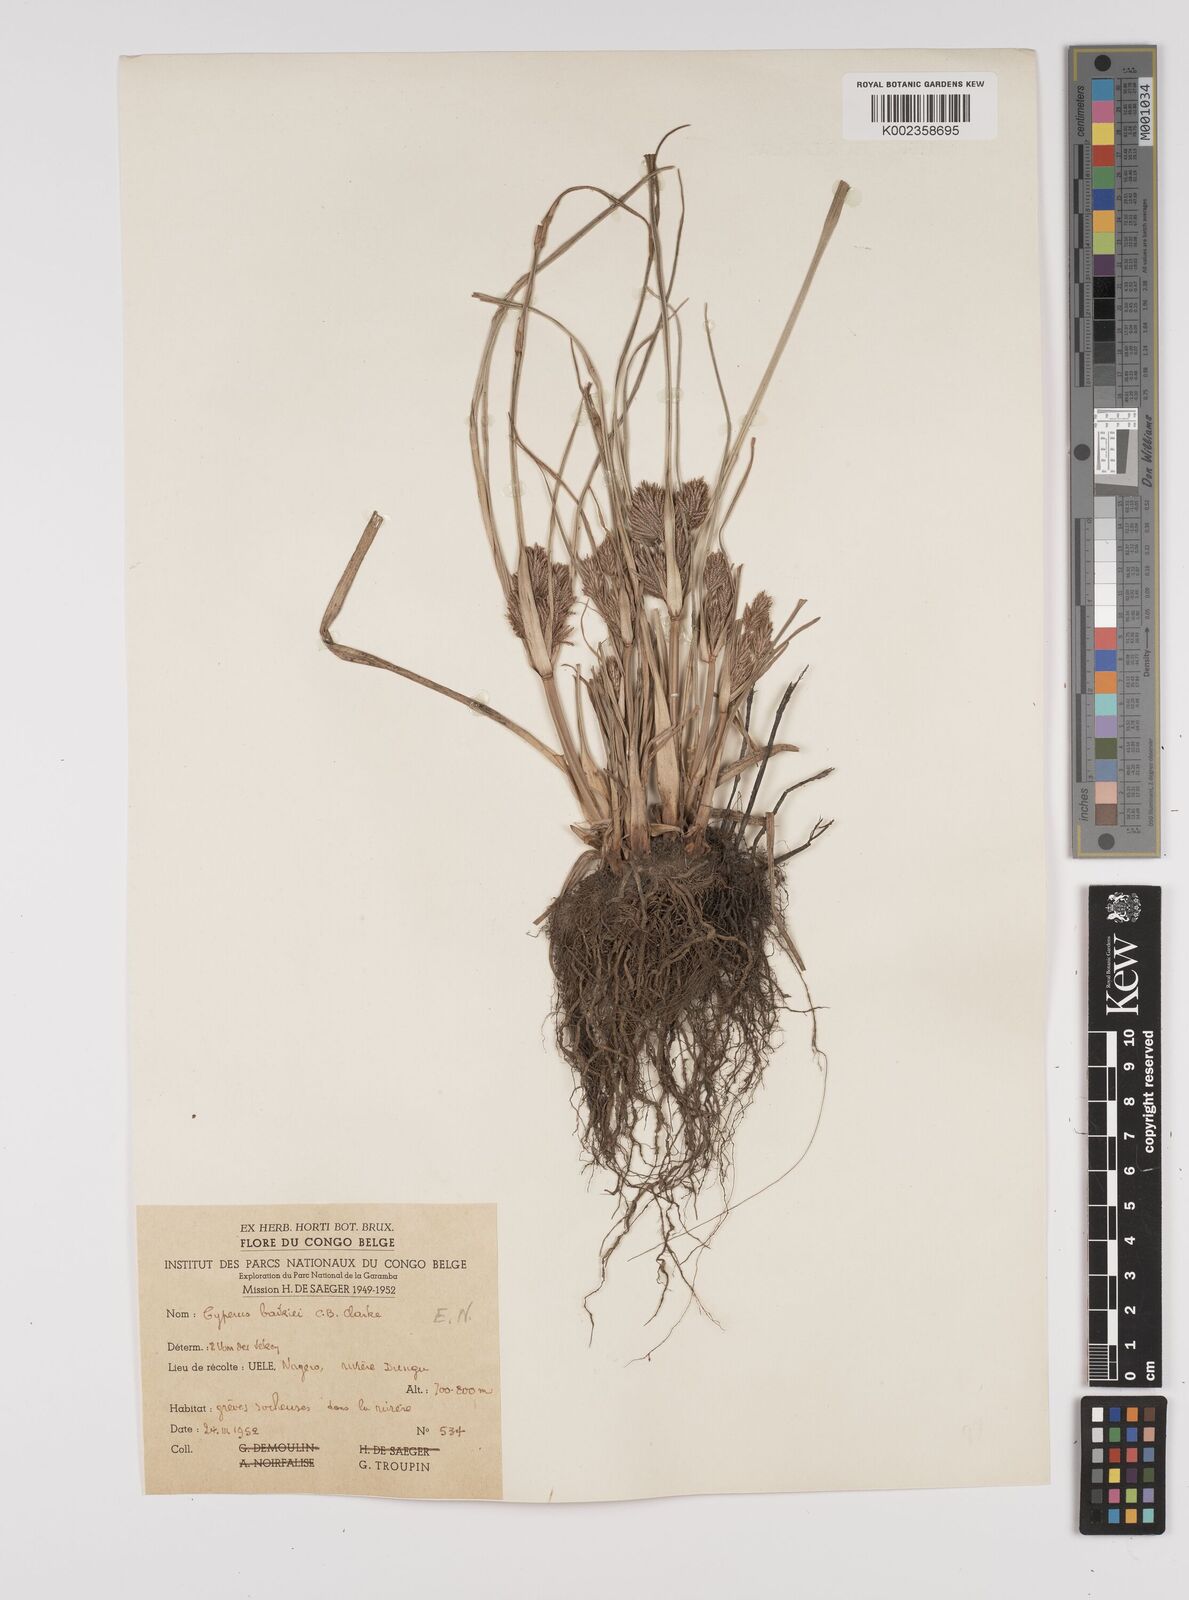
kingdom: Plantae
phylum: Tracheophyta
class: Liliopsida
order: Poales
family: Cyperaceae
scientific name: Cyperaceae
